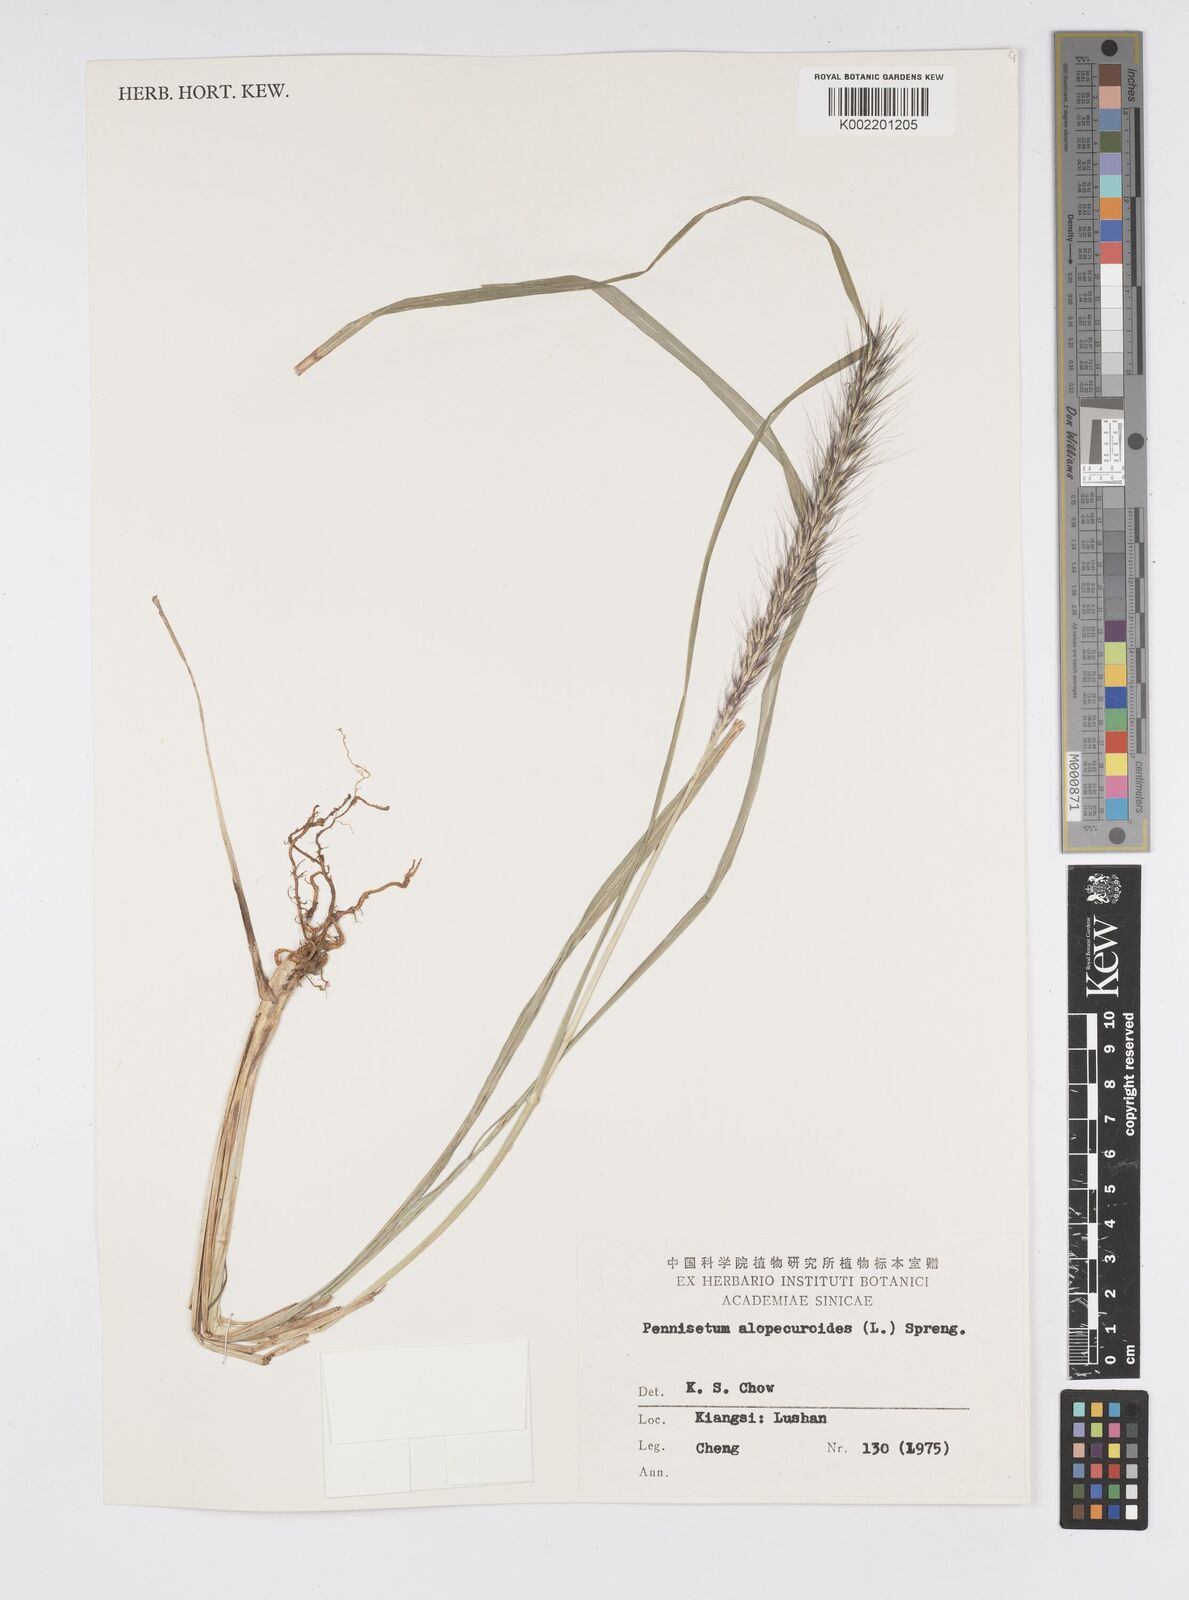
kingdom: Plantae
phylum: Tracheophyta
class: Liliopsida
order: Poales
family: Poaceae
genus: Cenchrus
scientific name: Cenchrus alopecuroides
